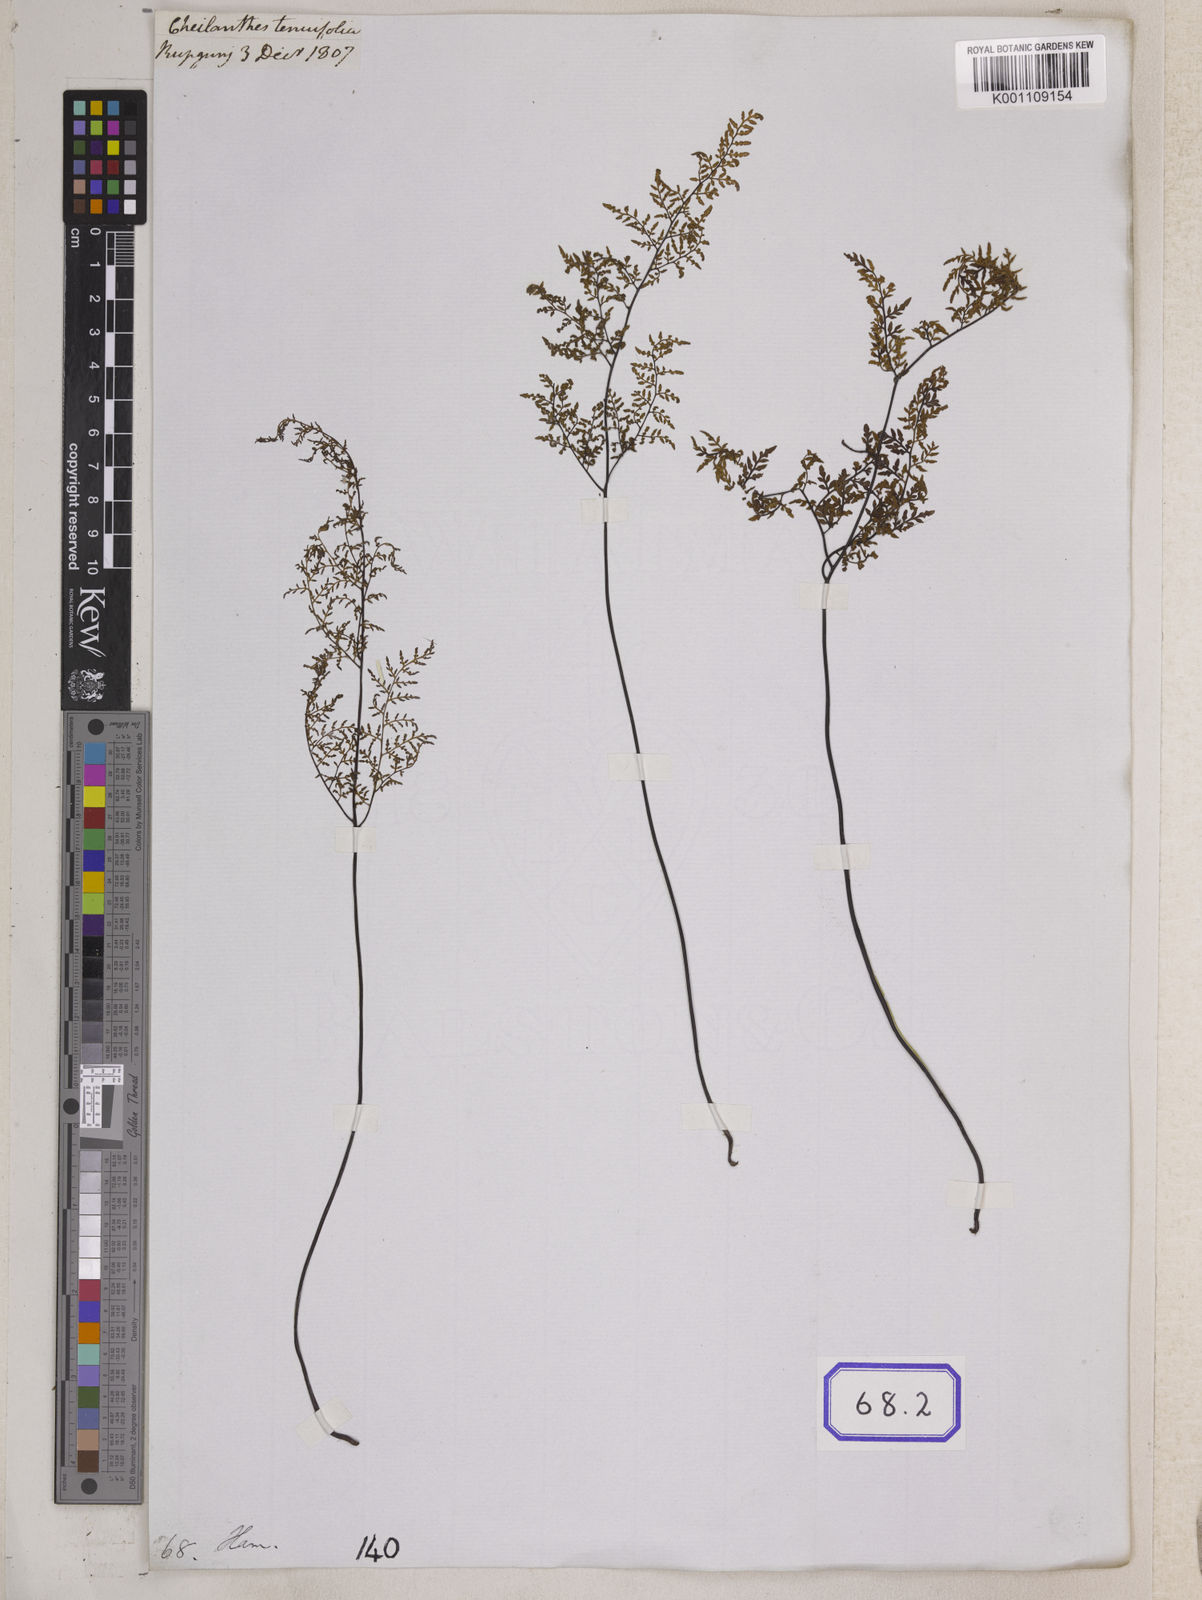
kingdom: Plantae
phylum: Tracheophyta
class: Polypodiopsida
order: Polypodiales
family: Pteridaceae
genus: Cheilanthes
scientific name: Cheilanthes tenuifolia
